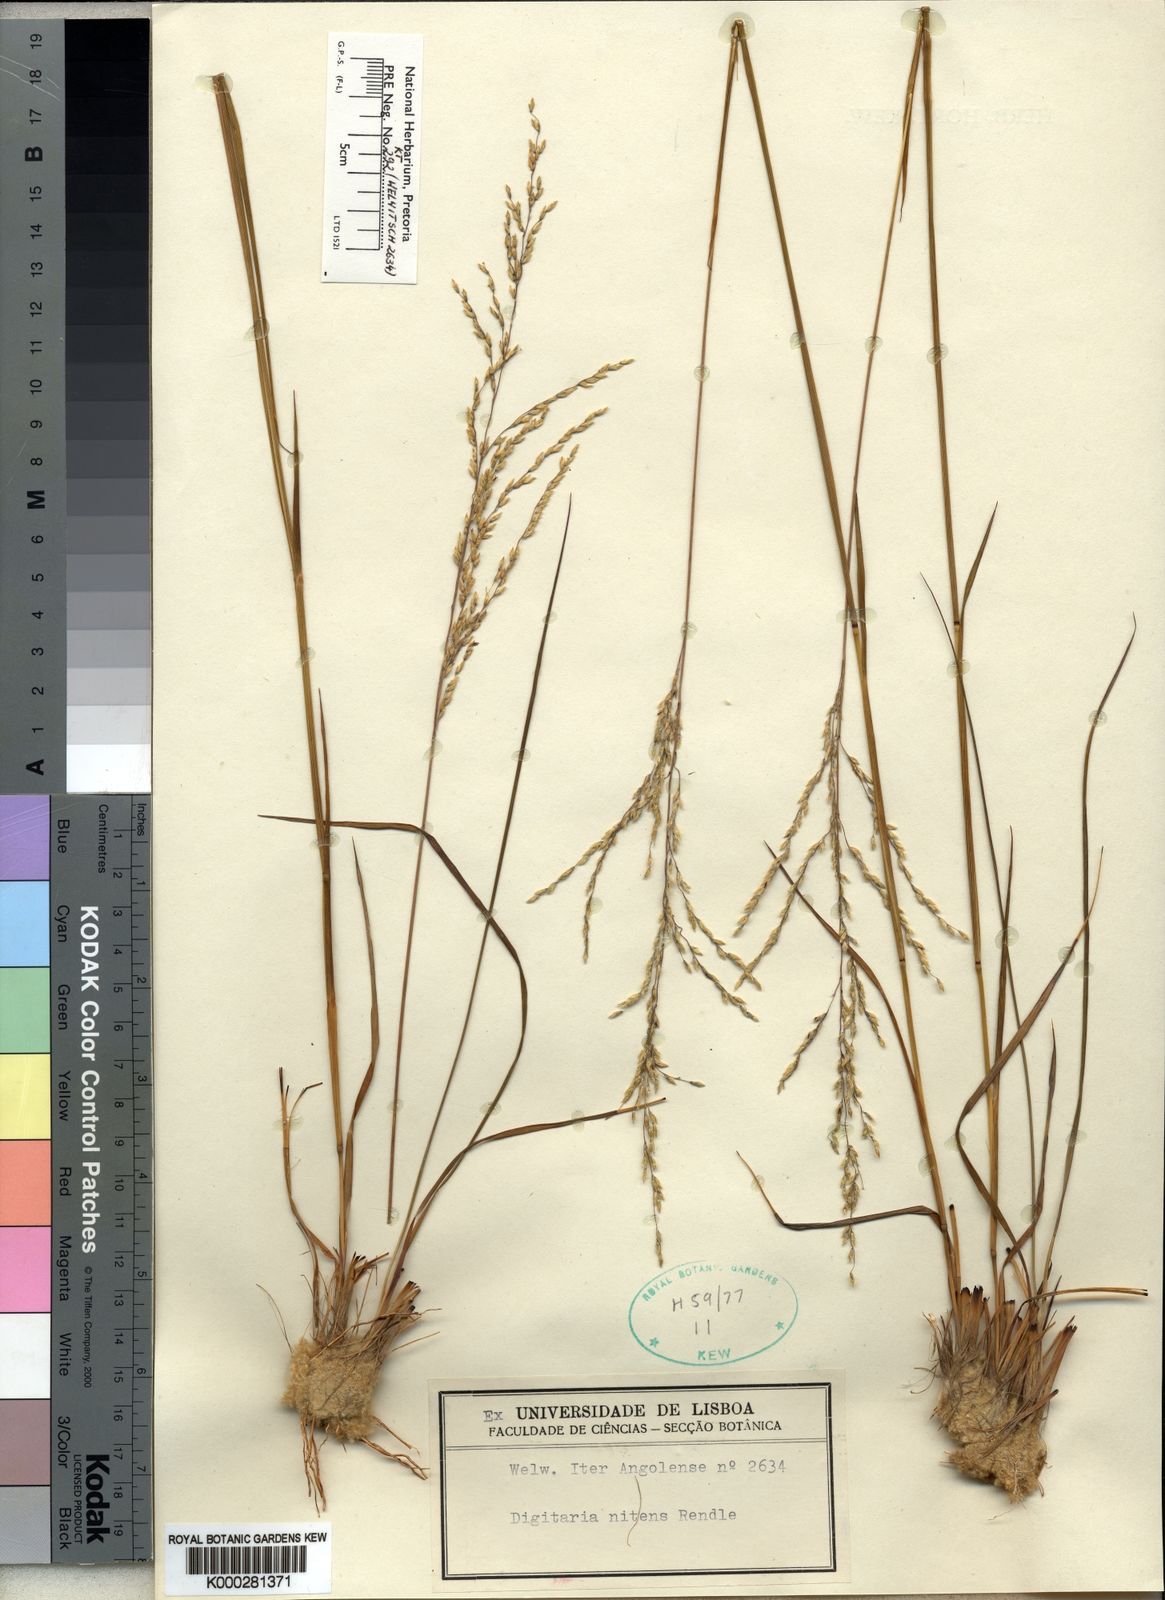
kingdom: Plantae
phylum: Tracheophyta
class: Liliopsida
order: Poales
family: Poaceae
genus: Digitaria
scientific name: Digitaria flaccida
